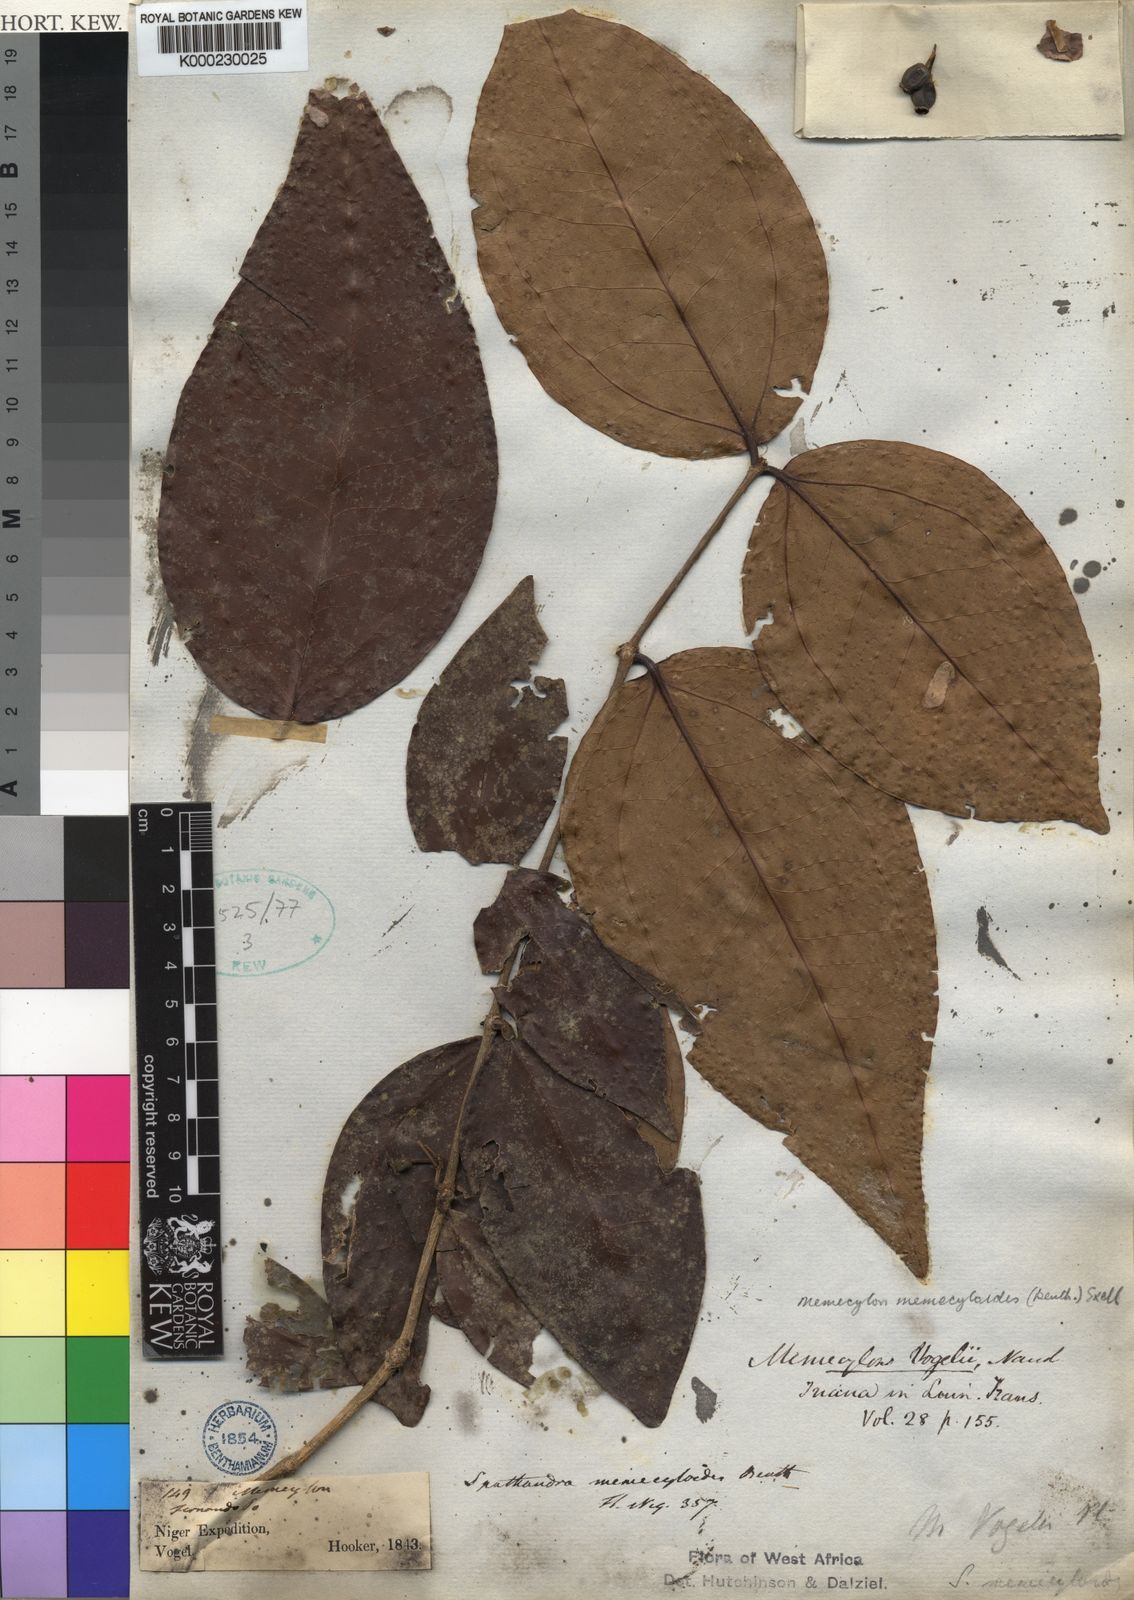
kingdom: Plantae
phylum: Tracheophyta
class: Magnoliopsida
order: Myrtales
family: Melastomataceae
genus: Warneckea
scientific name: Warneckea memecyloides
